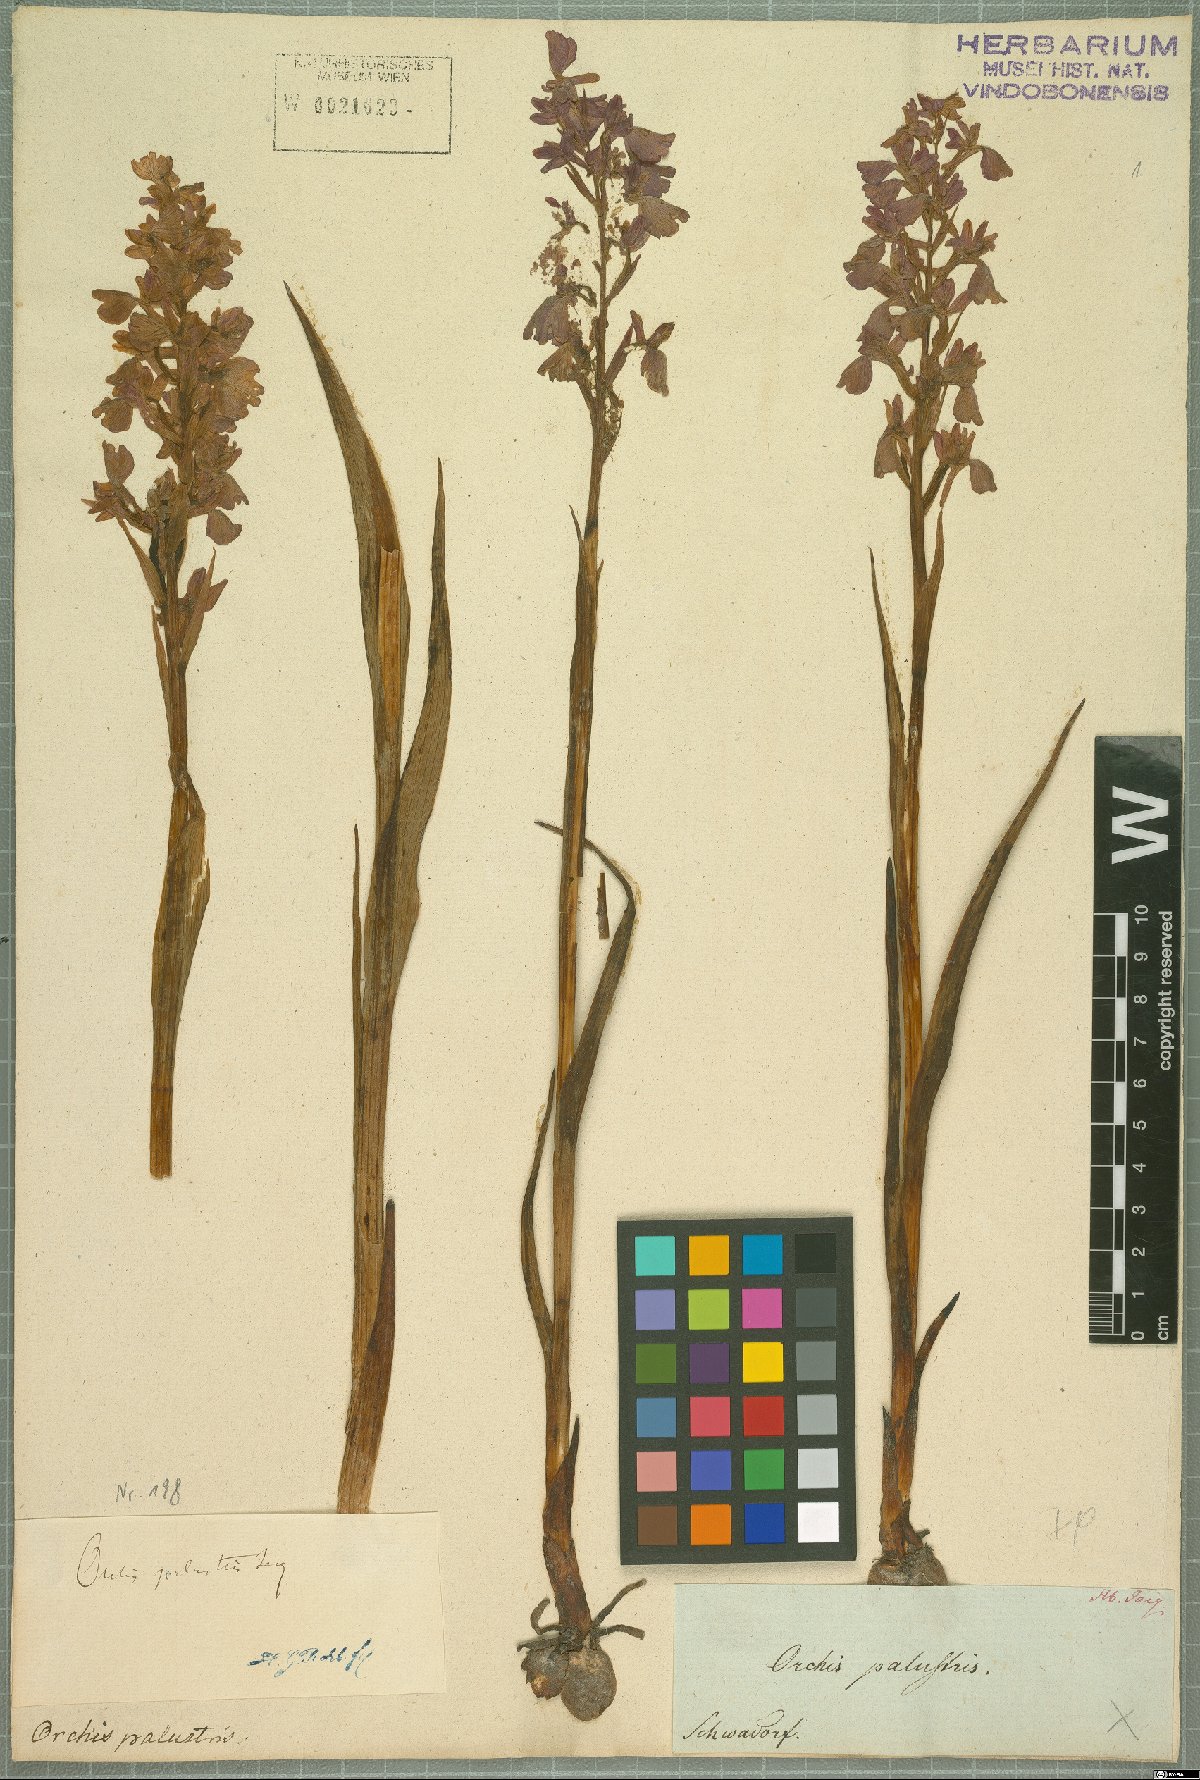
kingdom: Plantae
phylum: Tracheophyta
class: Liliopsida
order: Asparagales
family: Orchidaceae
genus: Anacamptis
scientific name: Anacamptis palustris
